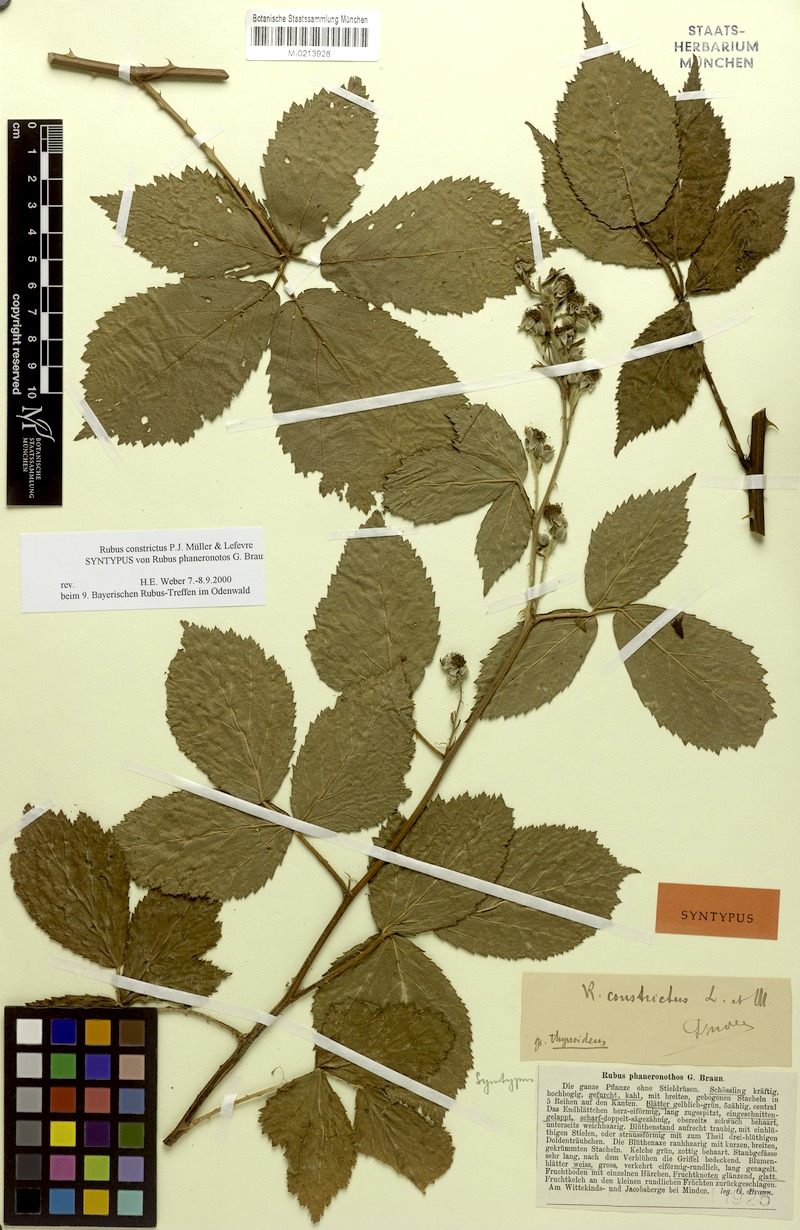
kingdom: Plantae
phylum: Tracheophyta
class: Magnoliopsida
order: Rosales
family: Rosaceae
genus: Rubus
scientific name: Rubus constrictus
